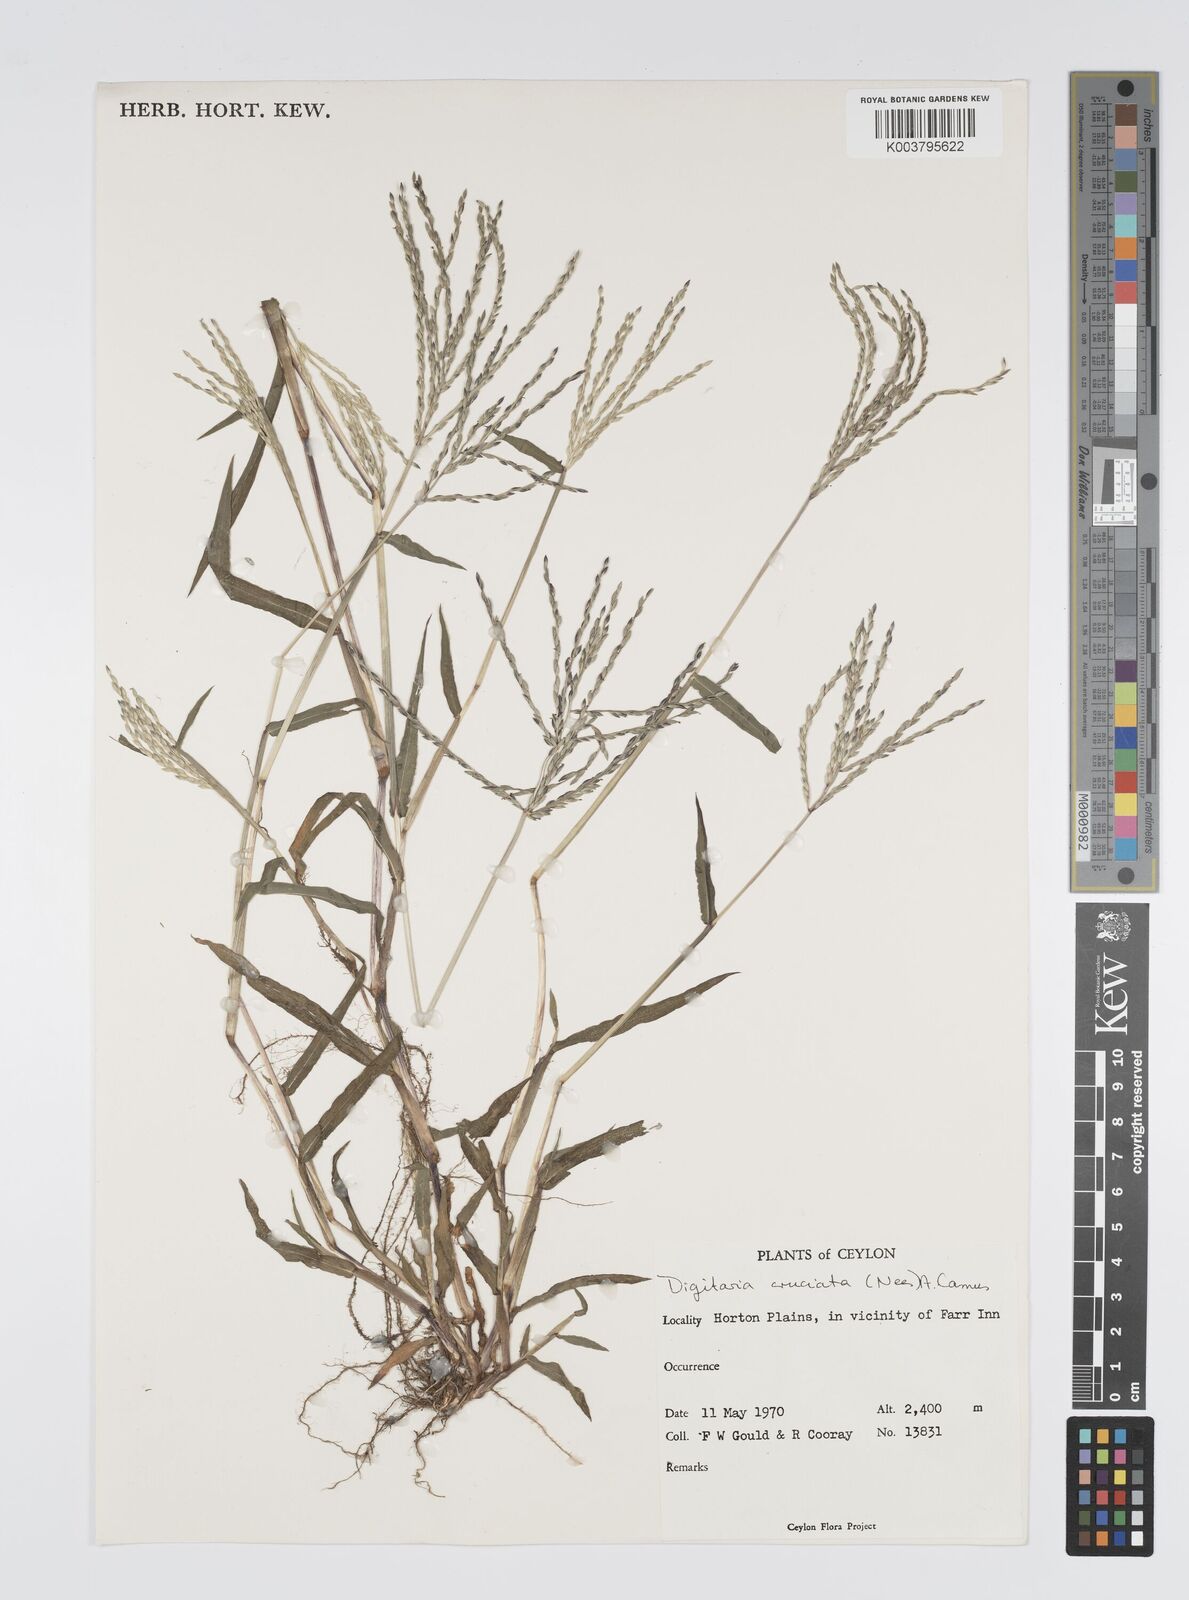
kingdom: Plantae
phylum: Tracheophyta
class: Liliopsida
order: Poales
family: Poaceae
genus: Digitaria
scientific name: Digitaria sanguinalis
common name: Hairy crabgrass
